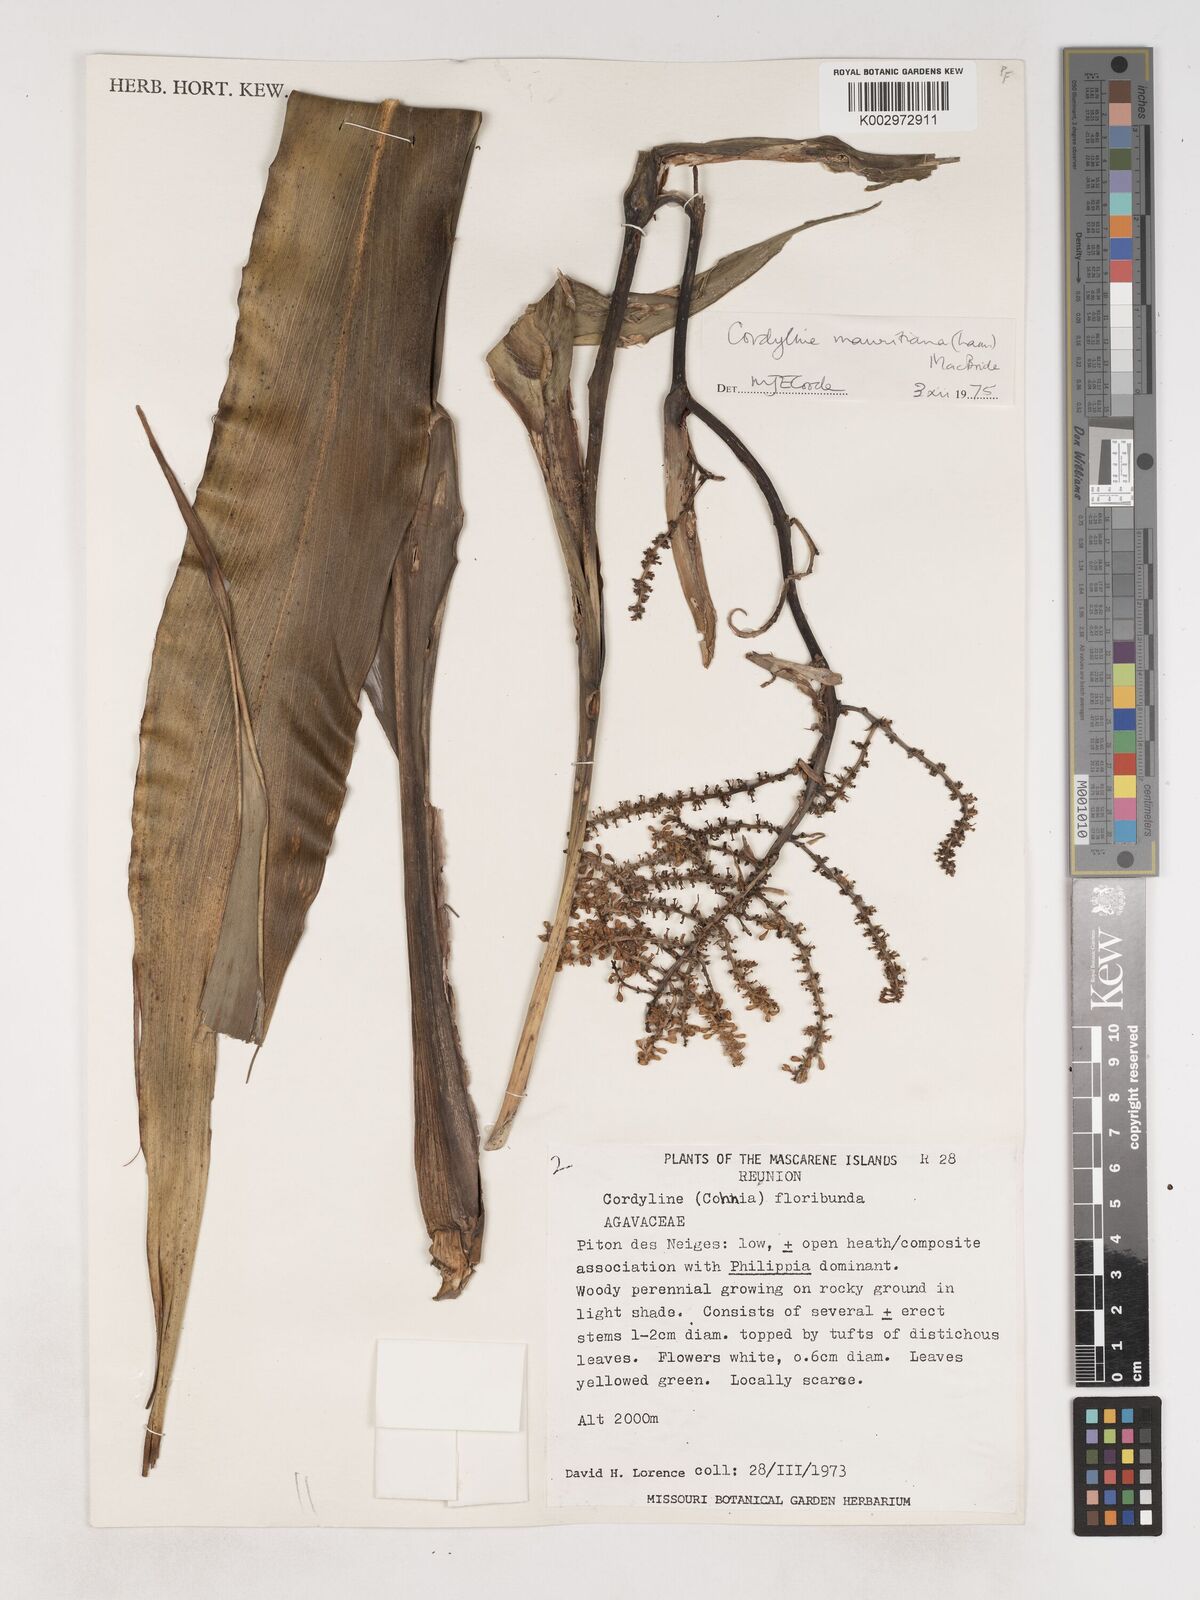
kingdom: Plantae
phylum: Tracheophyta
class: Liliopsida
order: Asparagales
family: Asparagaceae
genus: Cordyline
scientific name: Cordyline mauritiana
